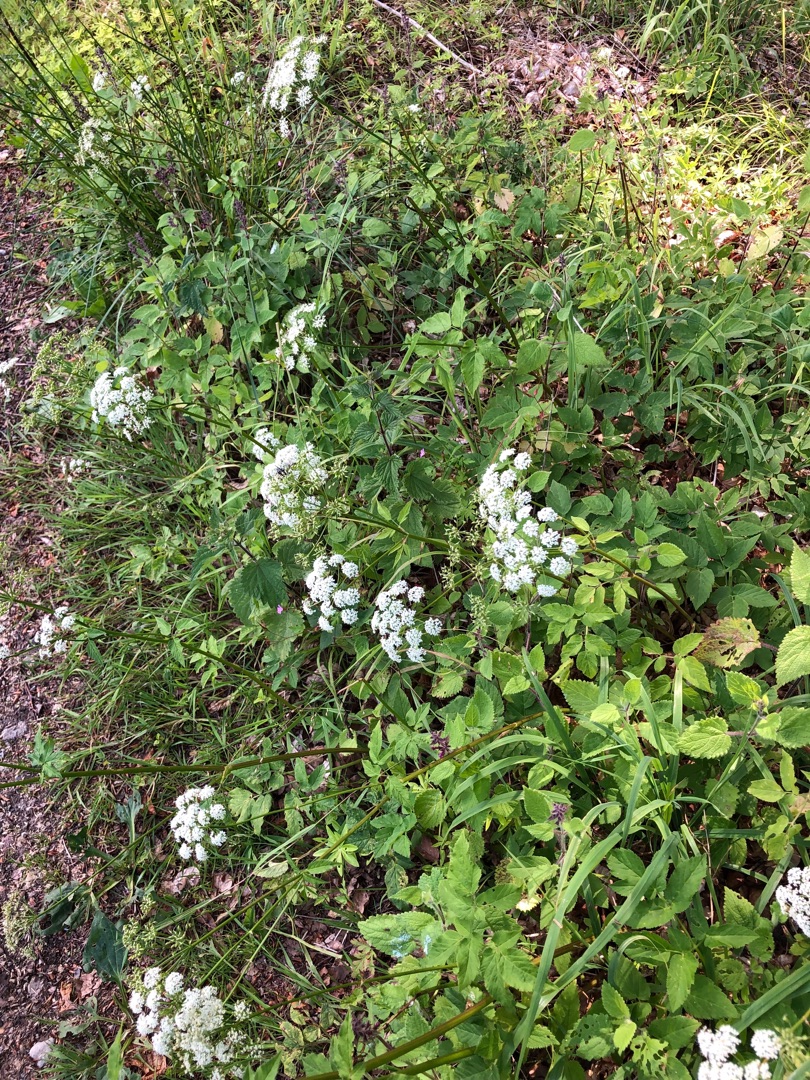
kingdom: Plantae
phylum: Tracheophyta
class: Magnoliopsida
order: Apiales
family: Apiaceae
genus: Aegopodium
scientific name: Aegopodium podagraria
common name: Skvalderkål
